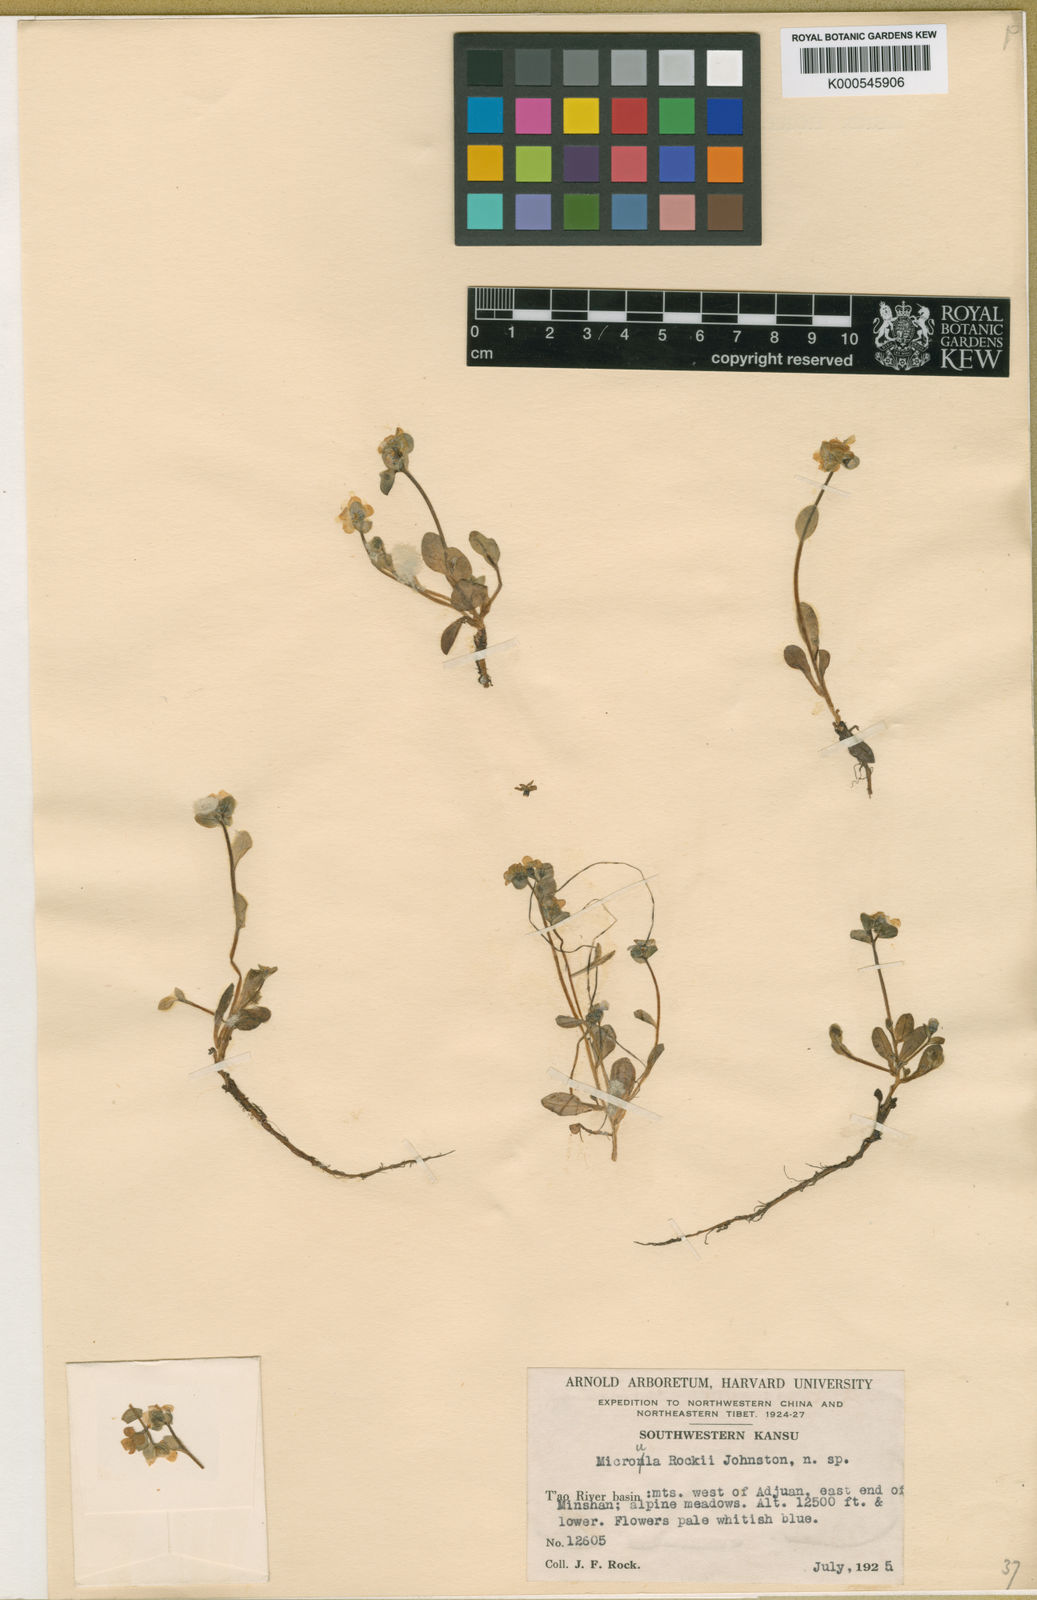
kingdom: Plantae
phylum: Tracheophyta
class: Magnoliopsida
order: Boraginales
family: Boraginaceae
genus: Microula
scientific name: Microula rockii
